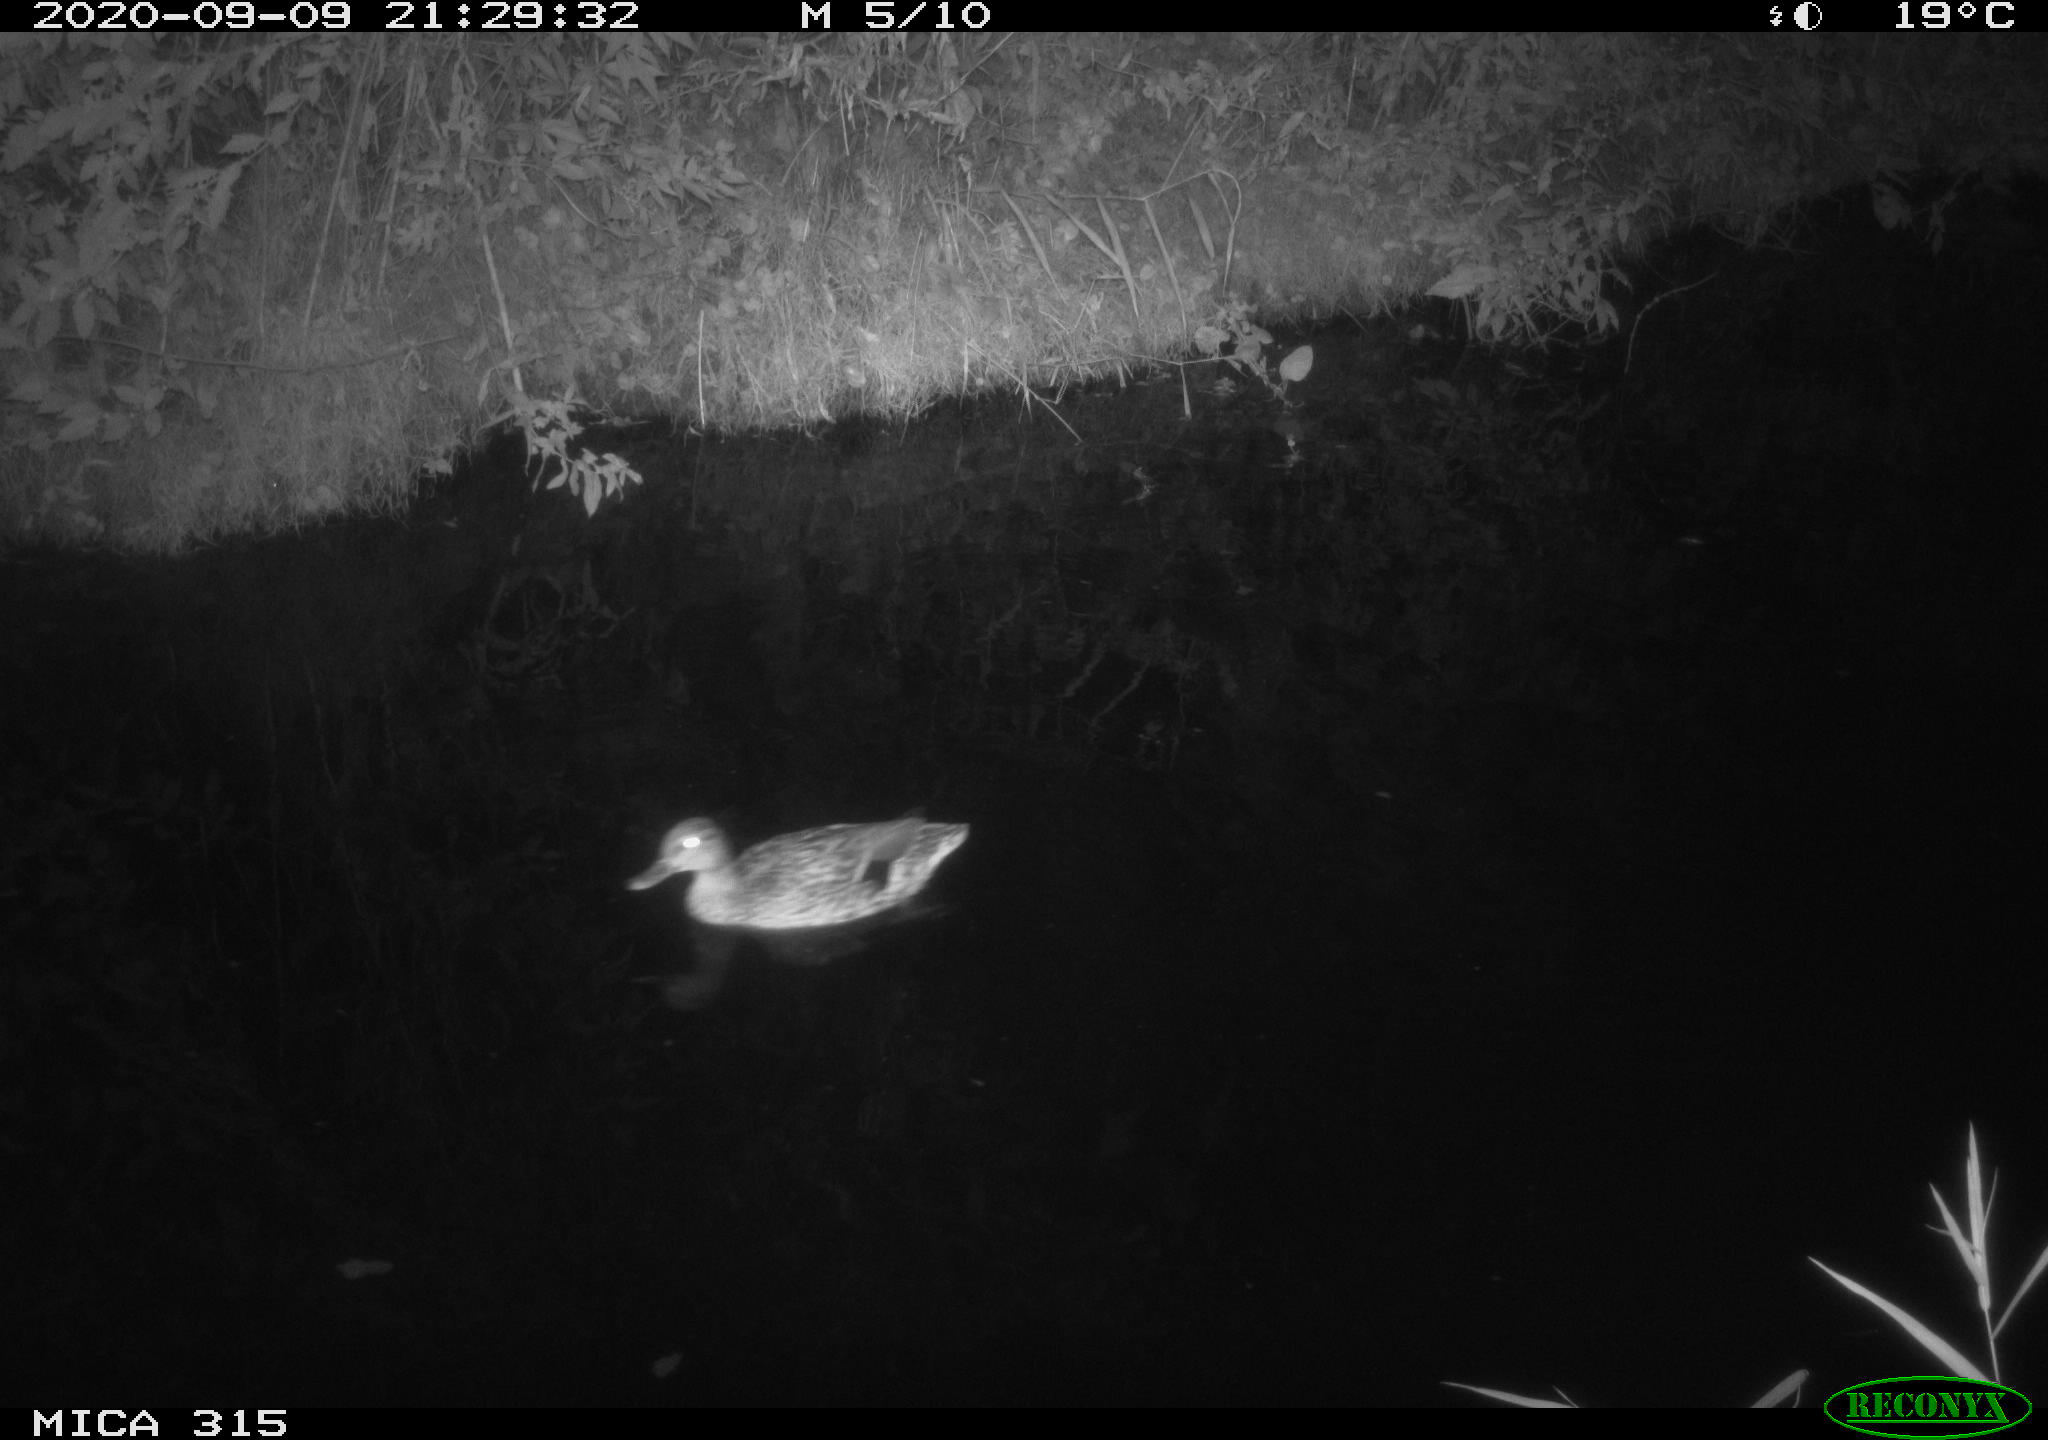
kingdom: Animalia
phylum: Chordata
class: Aves
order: Anseriformes
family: Anatidae
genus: Anas
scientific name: Anas platyrhynchos
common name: Mallard
